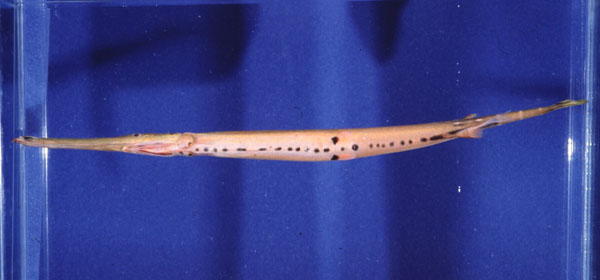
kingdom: Animalia
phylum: Chordata
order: Syngnathiformes
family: Aulostomidae
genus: Aulostomus
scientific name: Aulostomus chinensis
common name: Chinese trumpetfish
